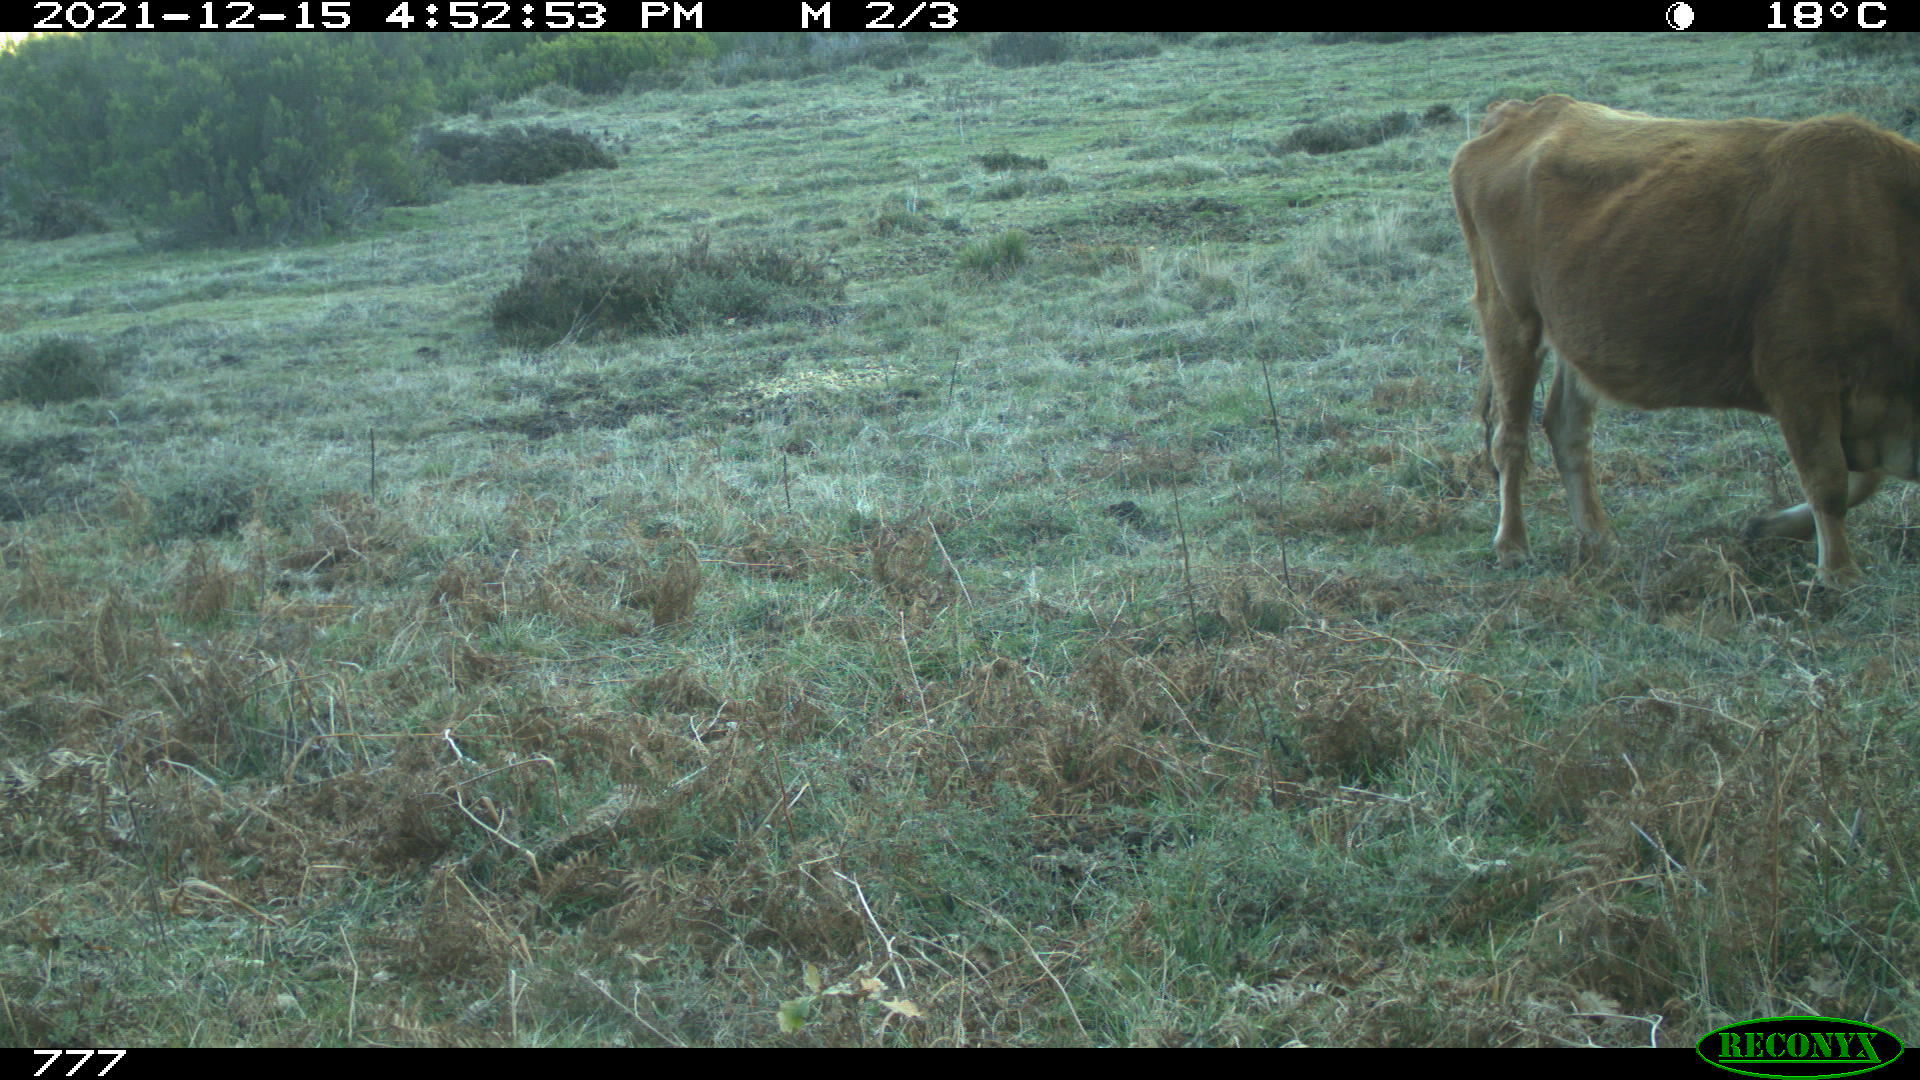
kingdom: Animalia
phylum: Chordata
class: Mammalia
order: Artiodactyla
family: Bovidae
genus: Bos
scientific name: Bos taurus
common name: Domesticated cattle
